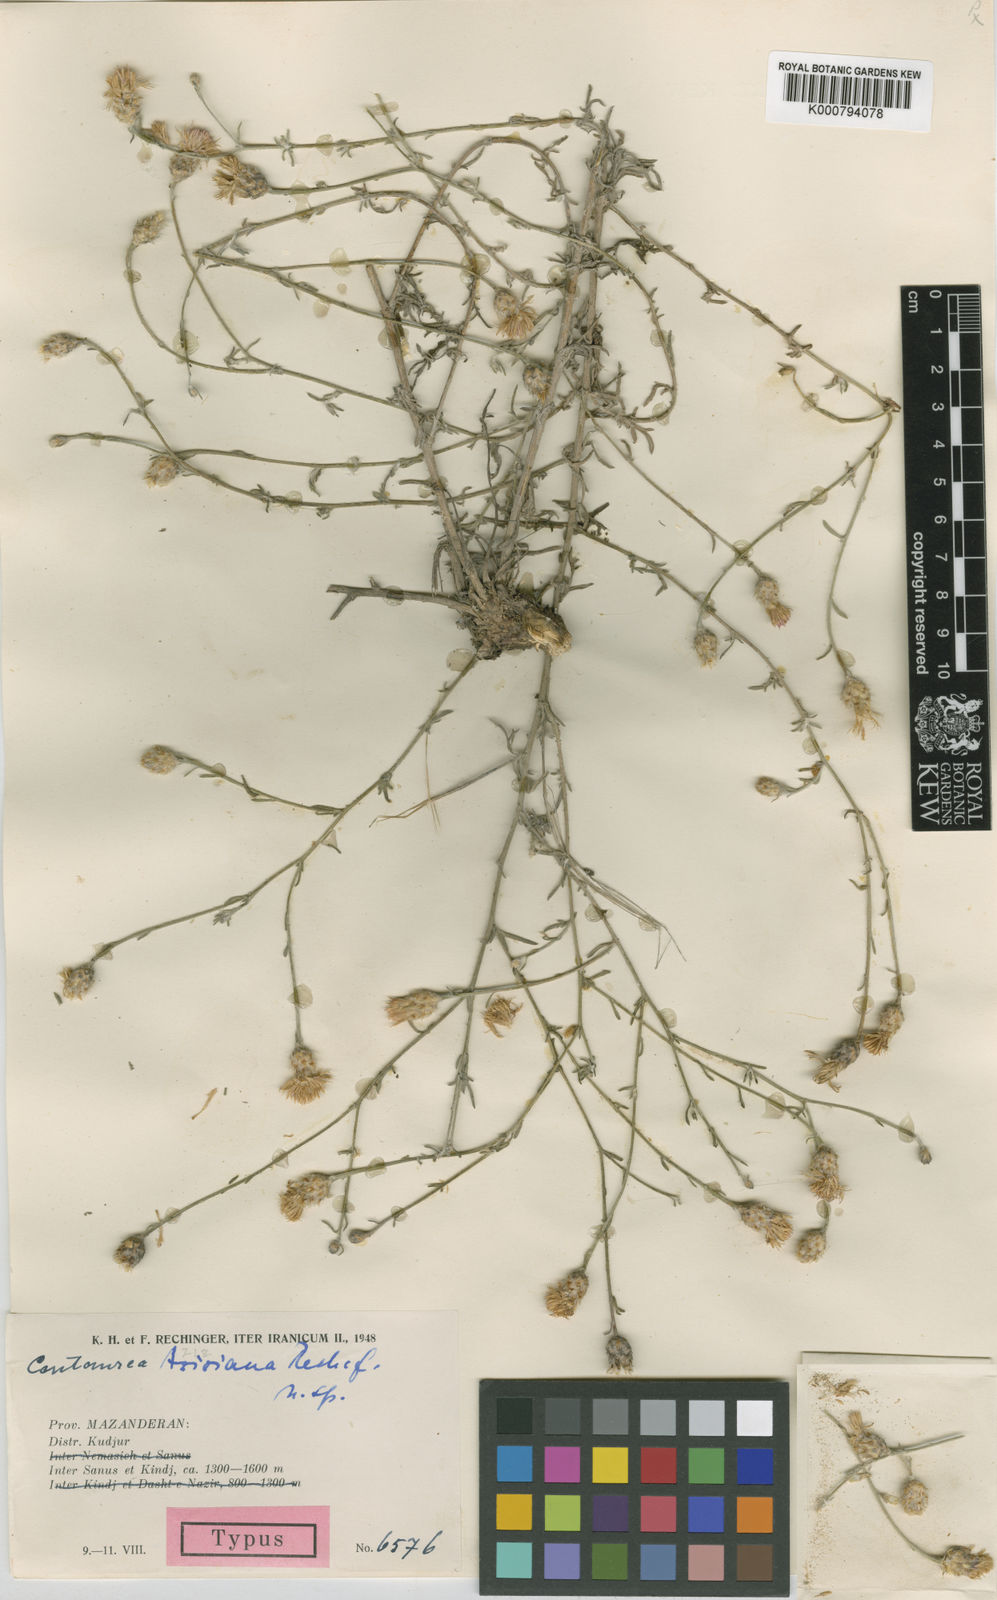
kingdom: Plantae
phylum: Tracheophyta
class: Magnoliopsida
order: Asterales
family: Asteraceae
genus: Centaurea
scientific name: Centaurea aziziana
